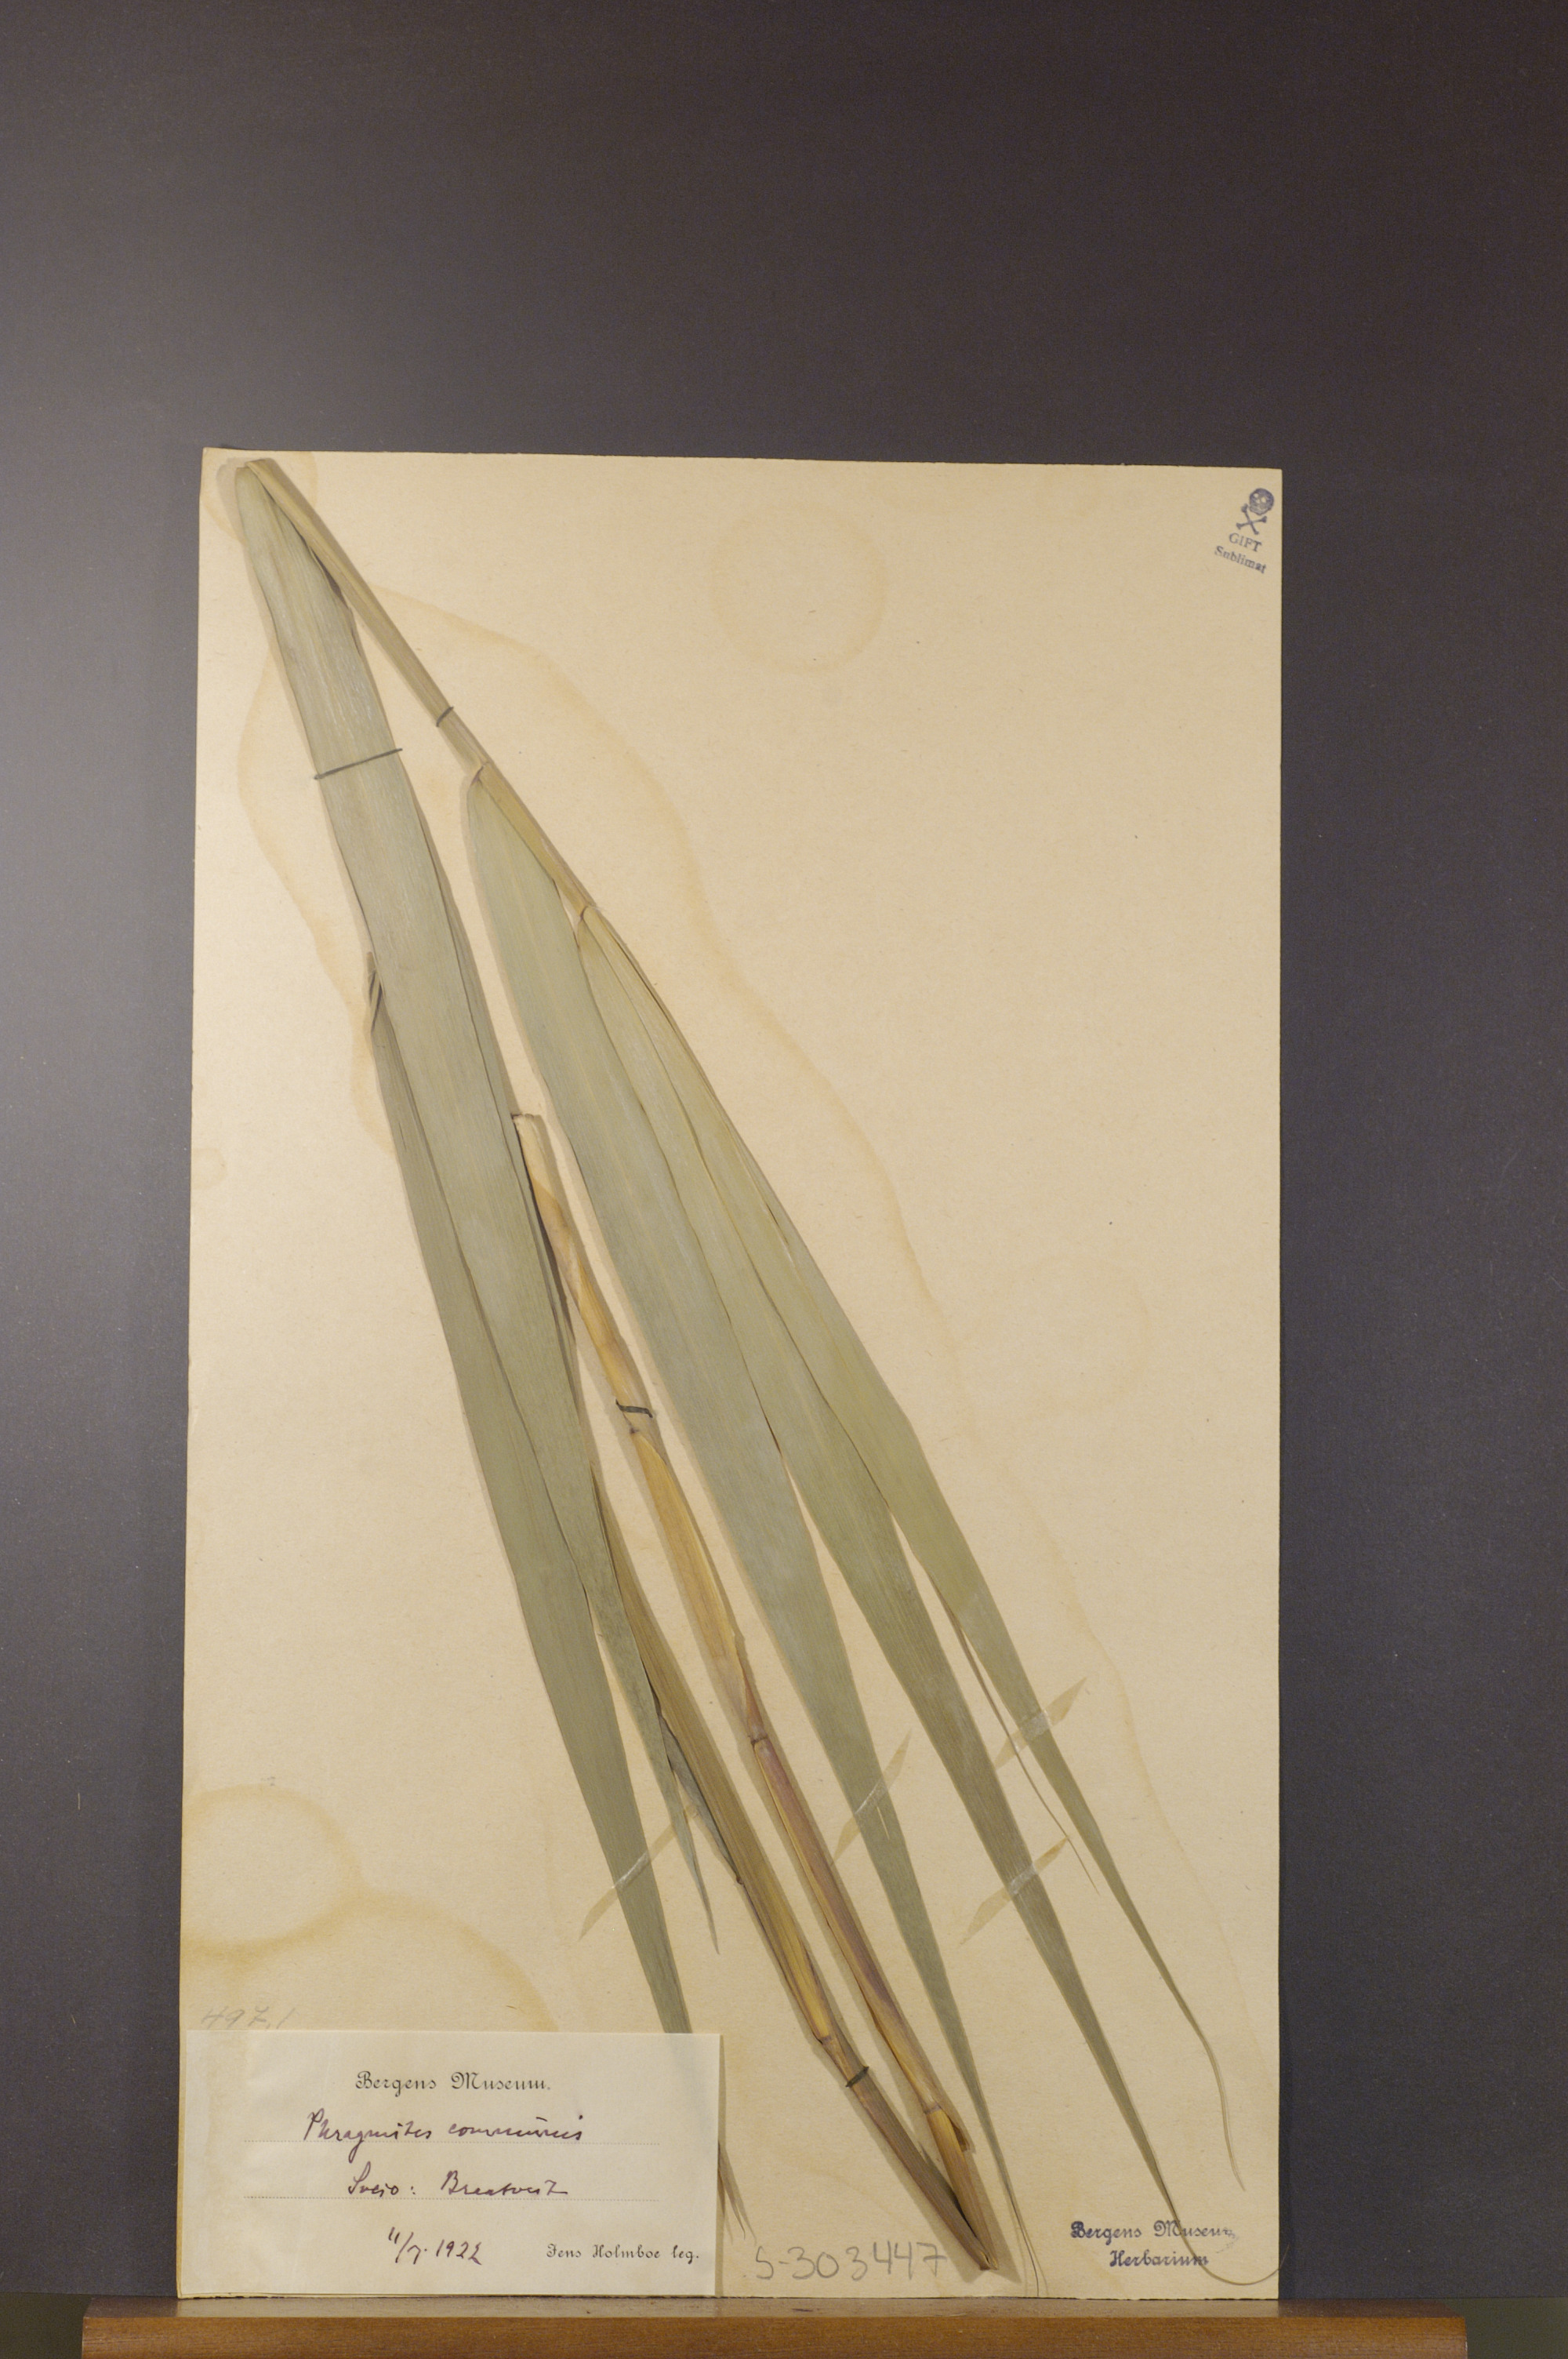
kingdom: Plantae
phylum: Tracheophyta
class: Liliopsida
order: Poales
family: Poaceae
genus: Phragmites
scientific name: Phragmites australis
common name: Common reed
